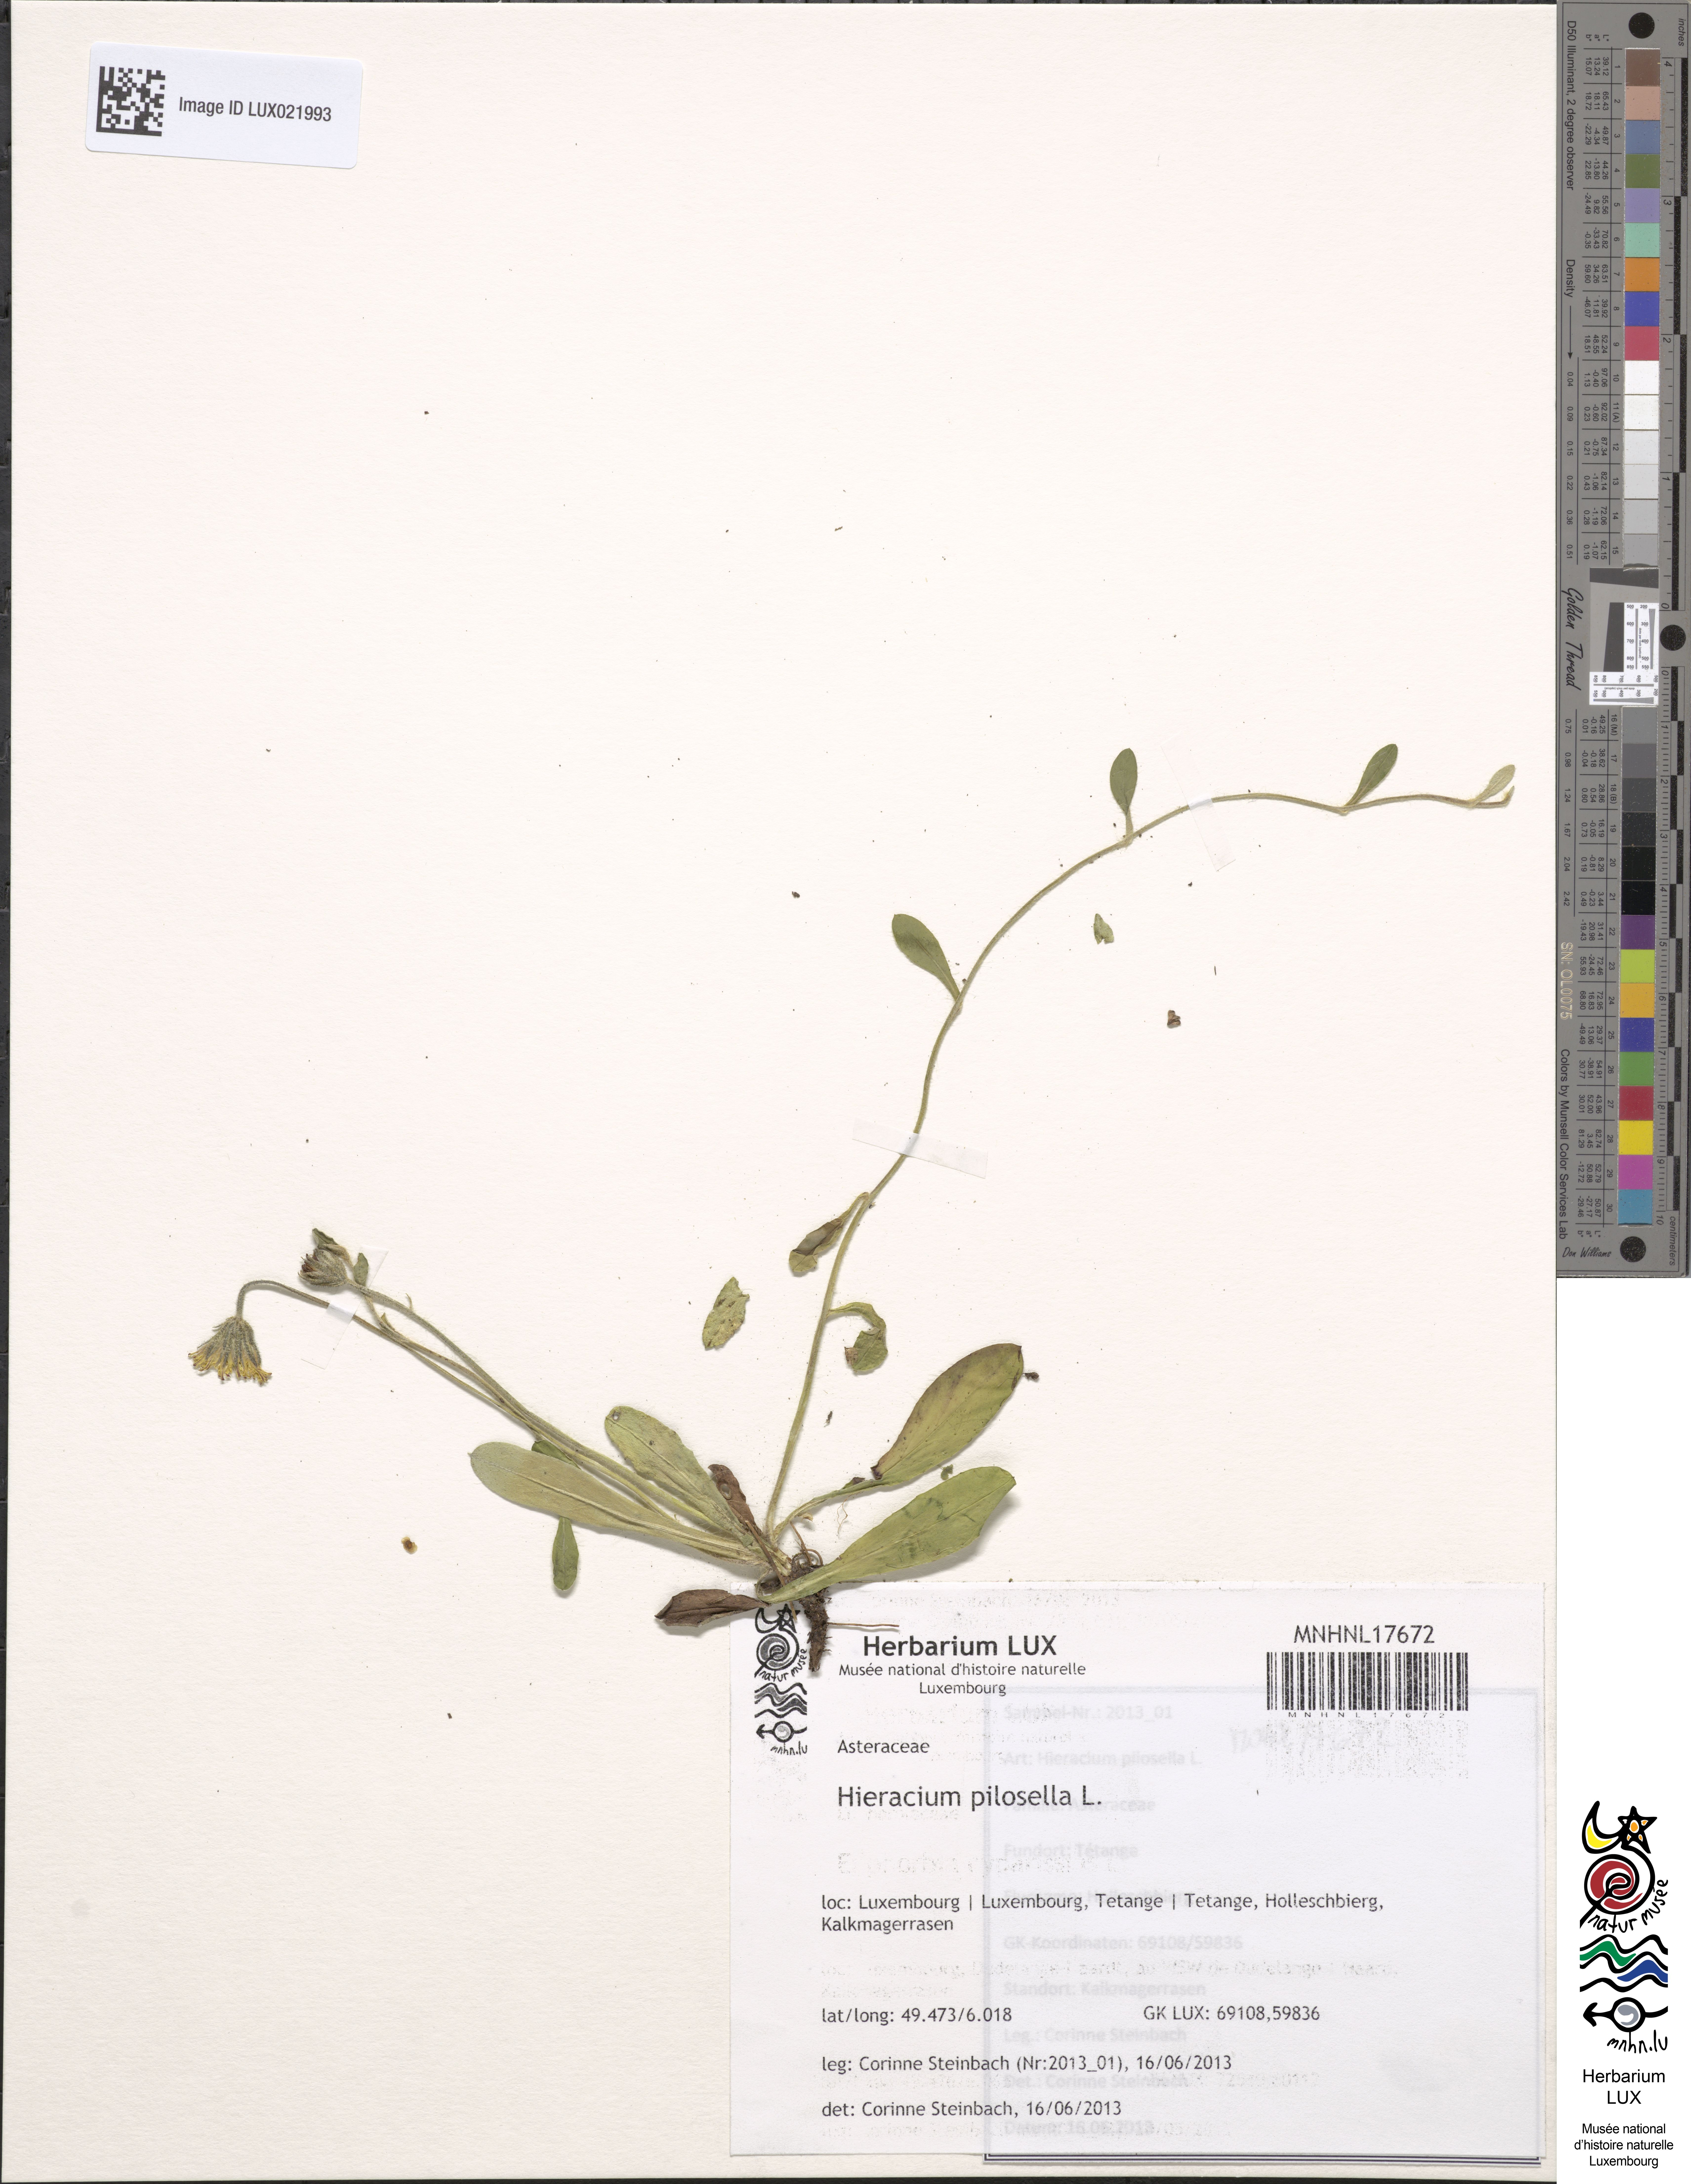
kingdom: Plantae
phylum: Tracheophyta
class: Magnoliopsida
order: Asterales
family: Asteraceae
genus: Pilosella
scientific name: Pilosella officinarum
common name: Mouse-ear hawkweed
